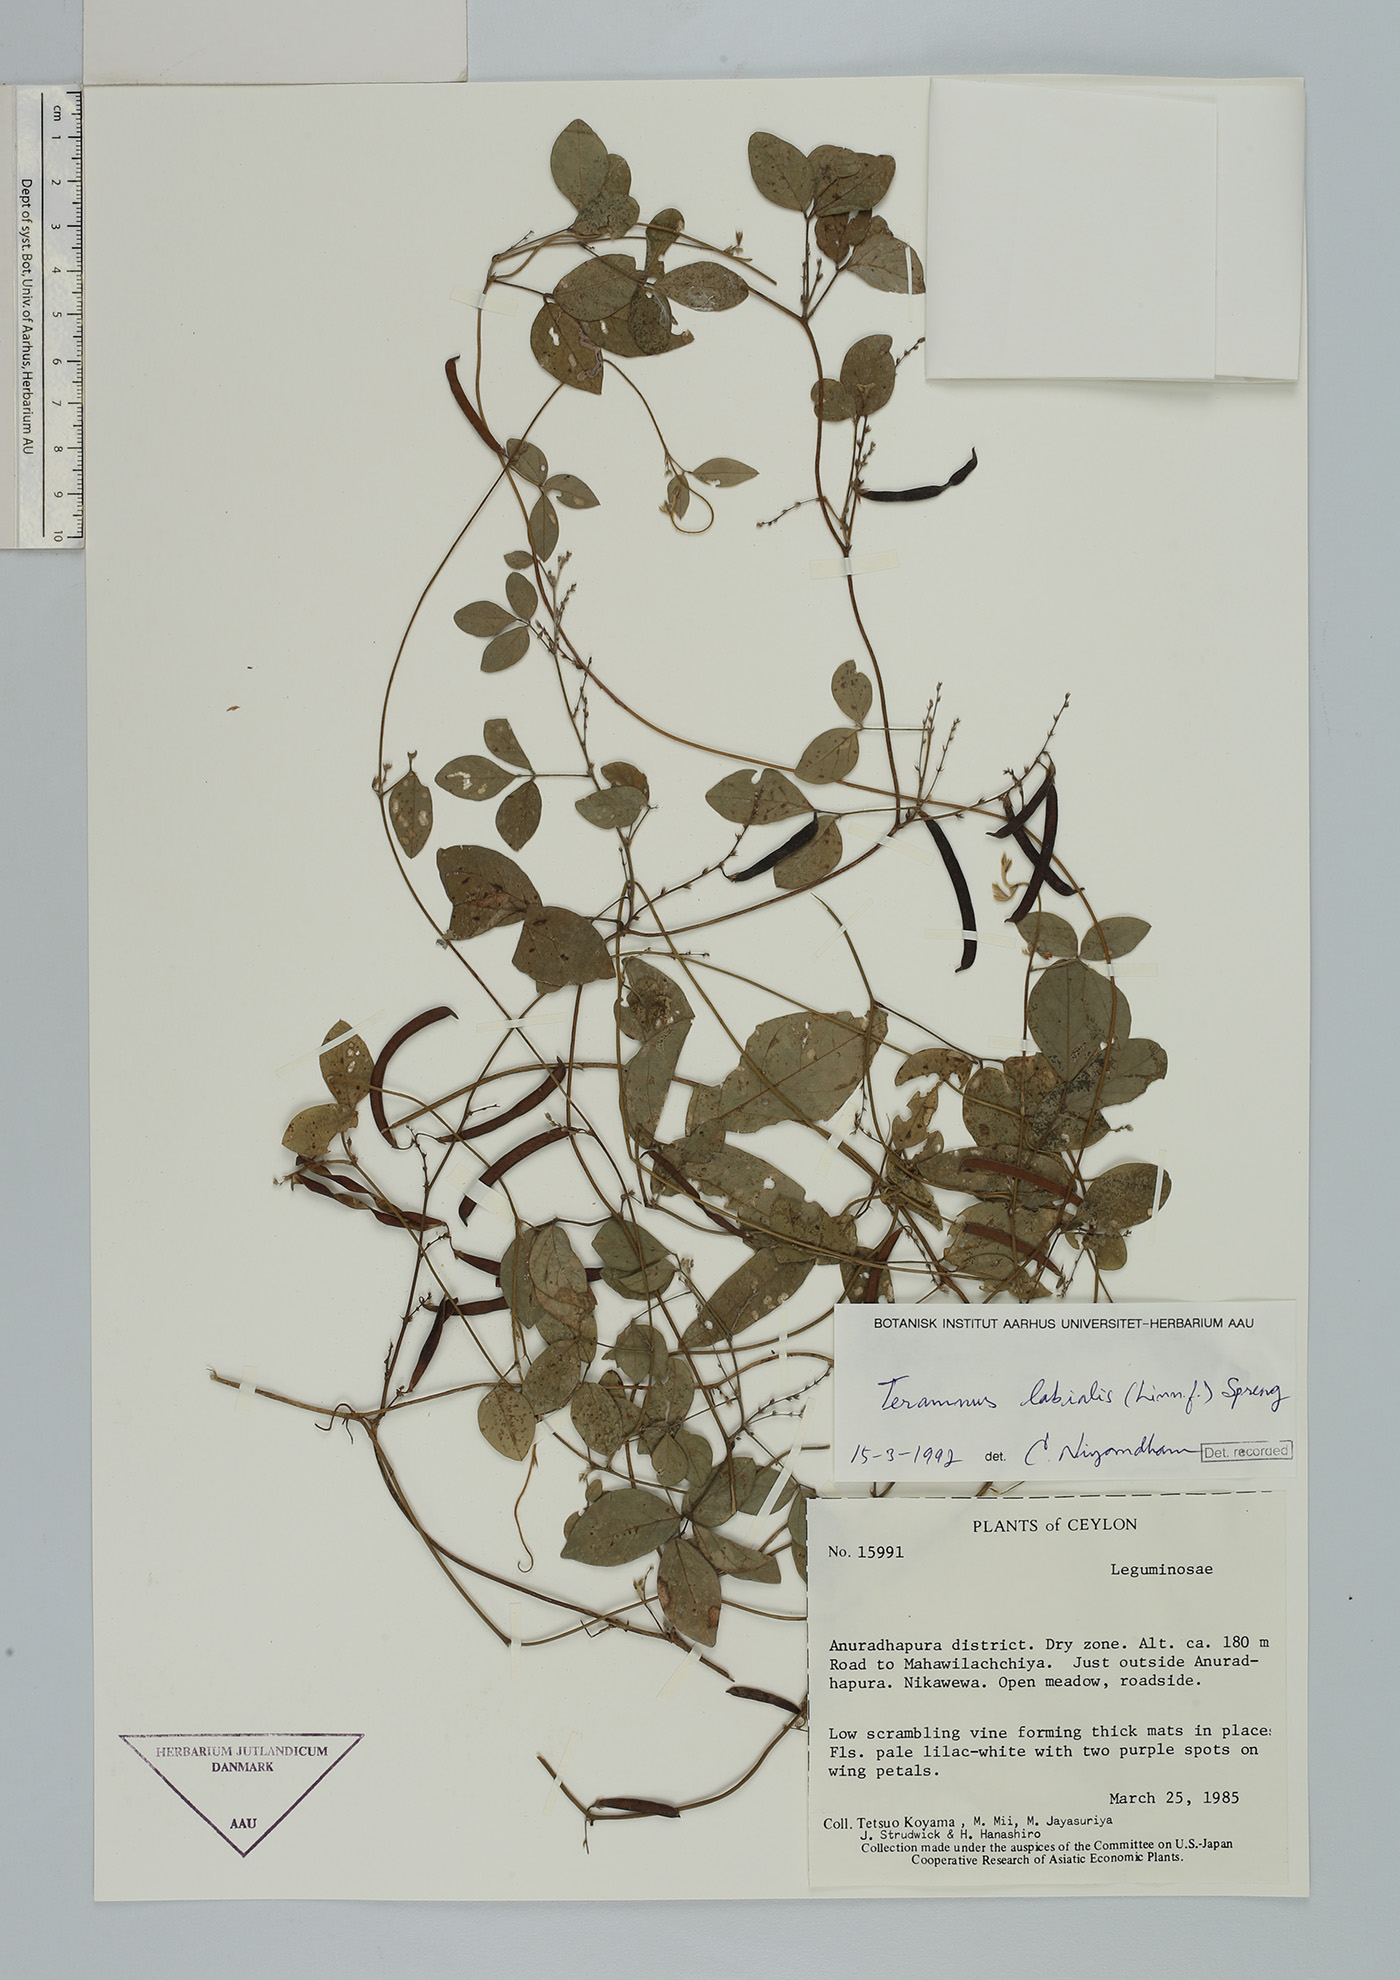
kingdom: Plantae
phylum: Tracheophyta
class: Magnoliopsida
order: Fabales
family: Fabaceae
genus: Teramnus
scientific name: Teramnus labialis
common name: Blue wiss
